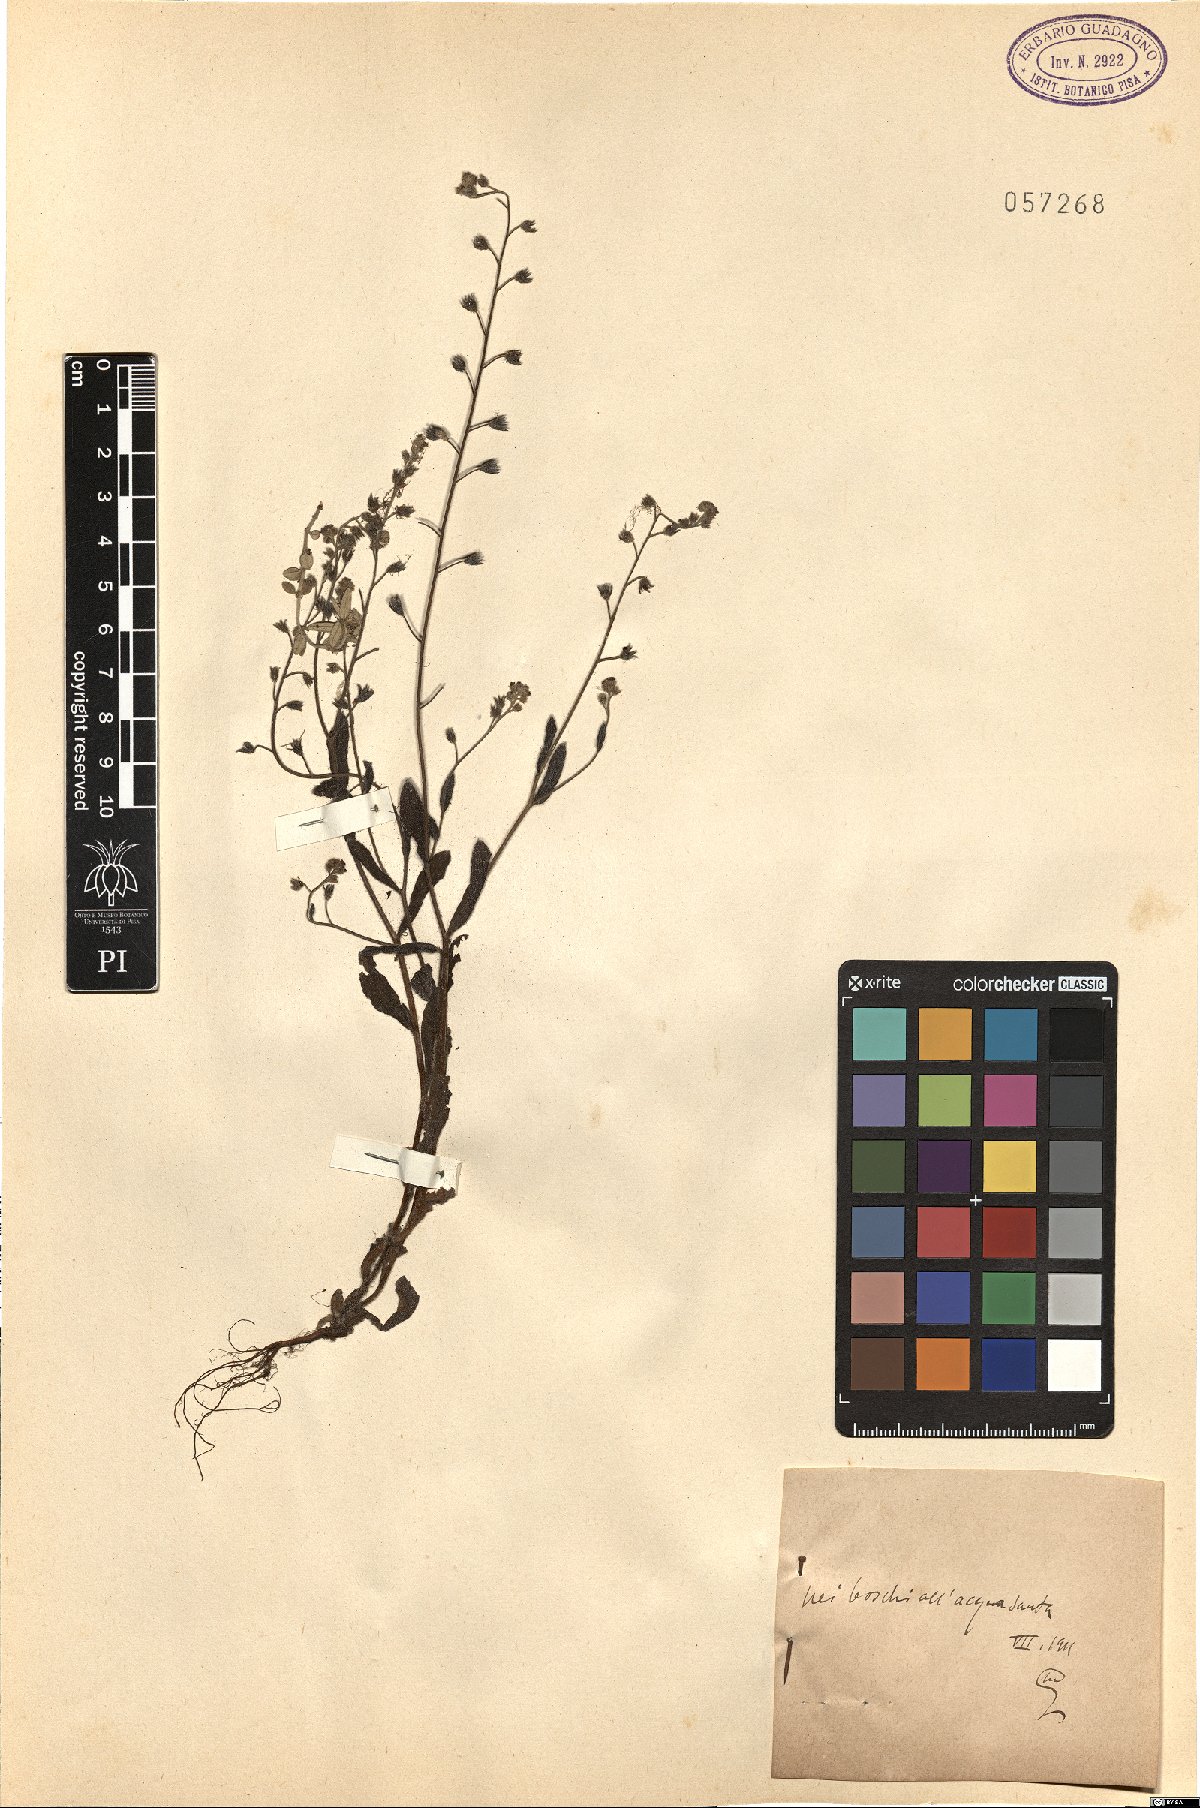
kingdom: Plantae
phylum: Tracheophyta
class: Magnoliopsida
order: Boraginales
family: Boraginaceae
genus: Myosotis
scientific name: Myosotis
